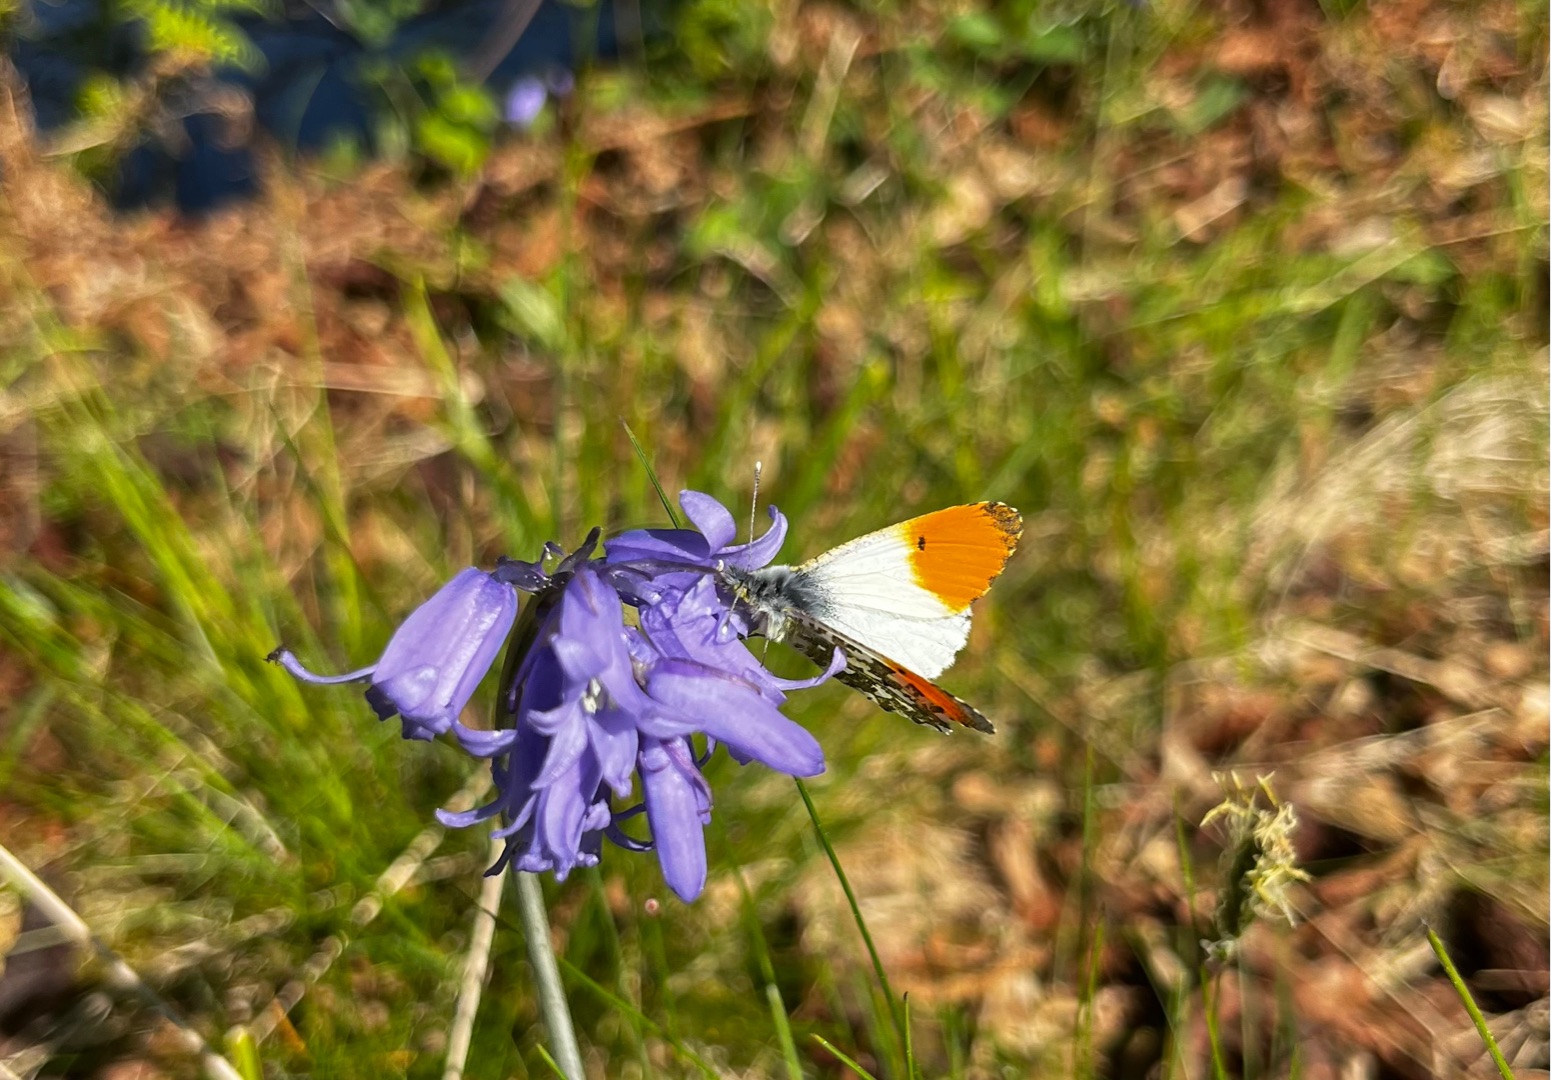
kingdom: Animalia
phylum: Arthropoda
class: Insecta
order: Lepidoptera
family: Pieridae
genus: Anthocharis
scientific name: Anthocharis cardamines
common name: Aurora
